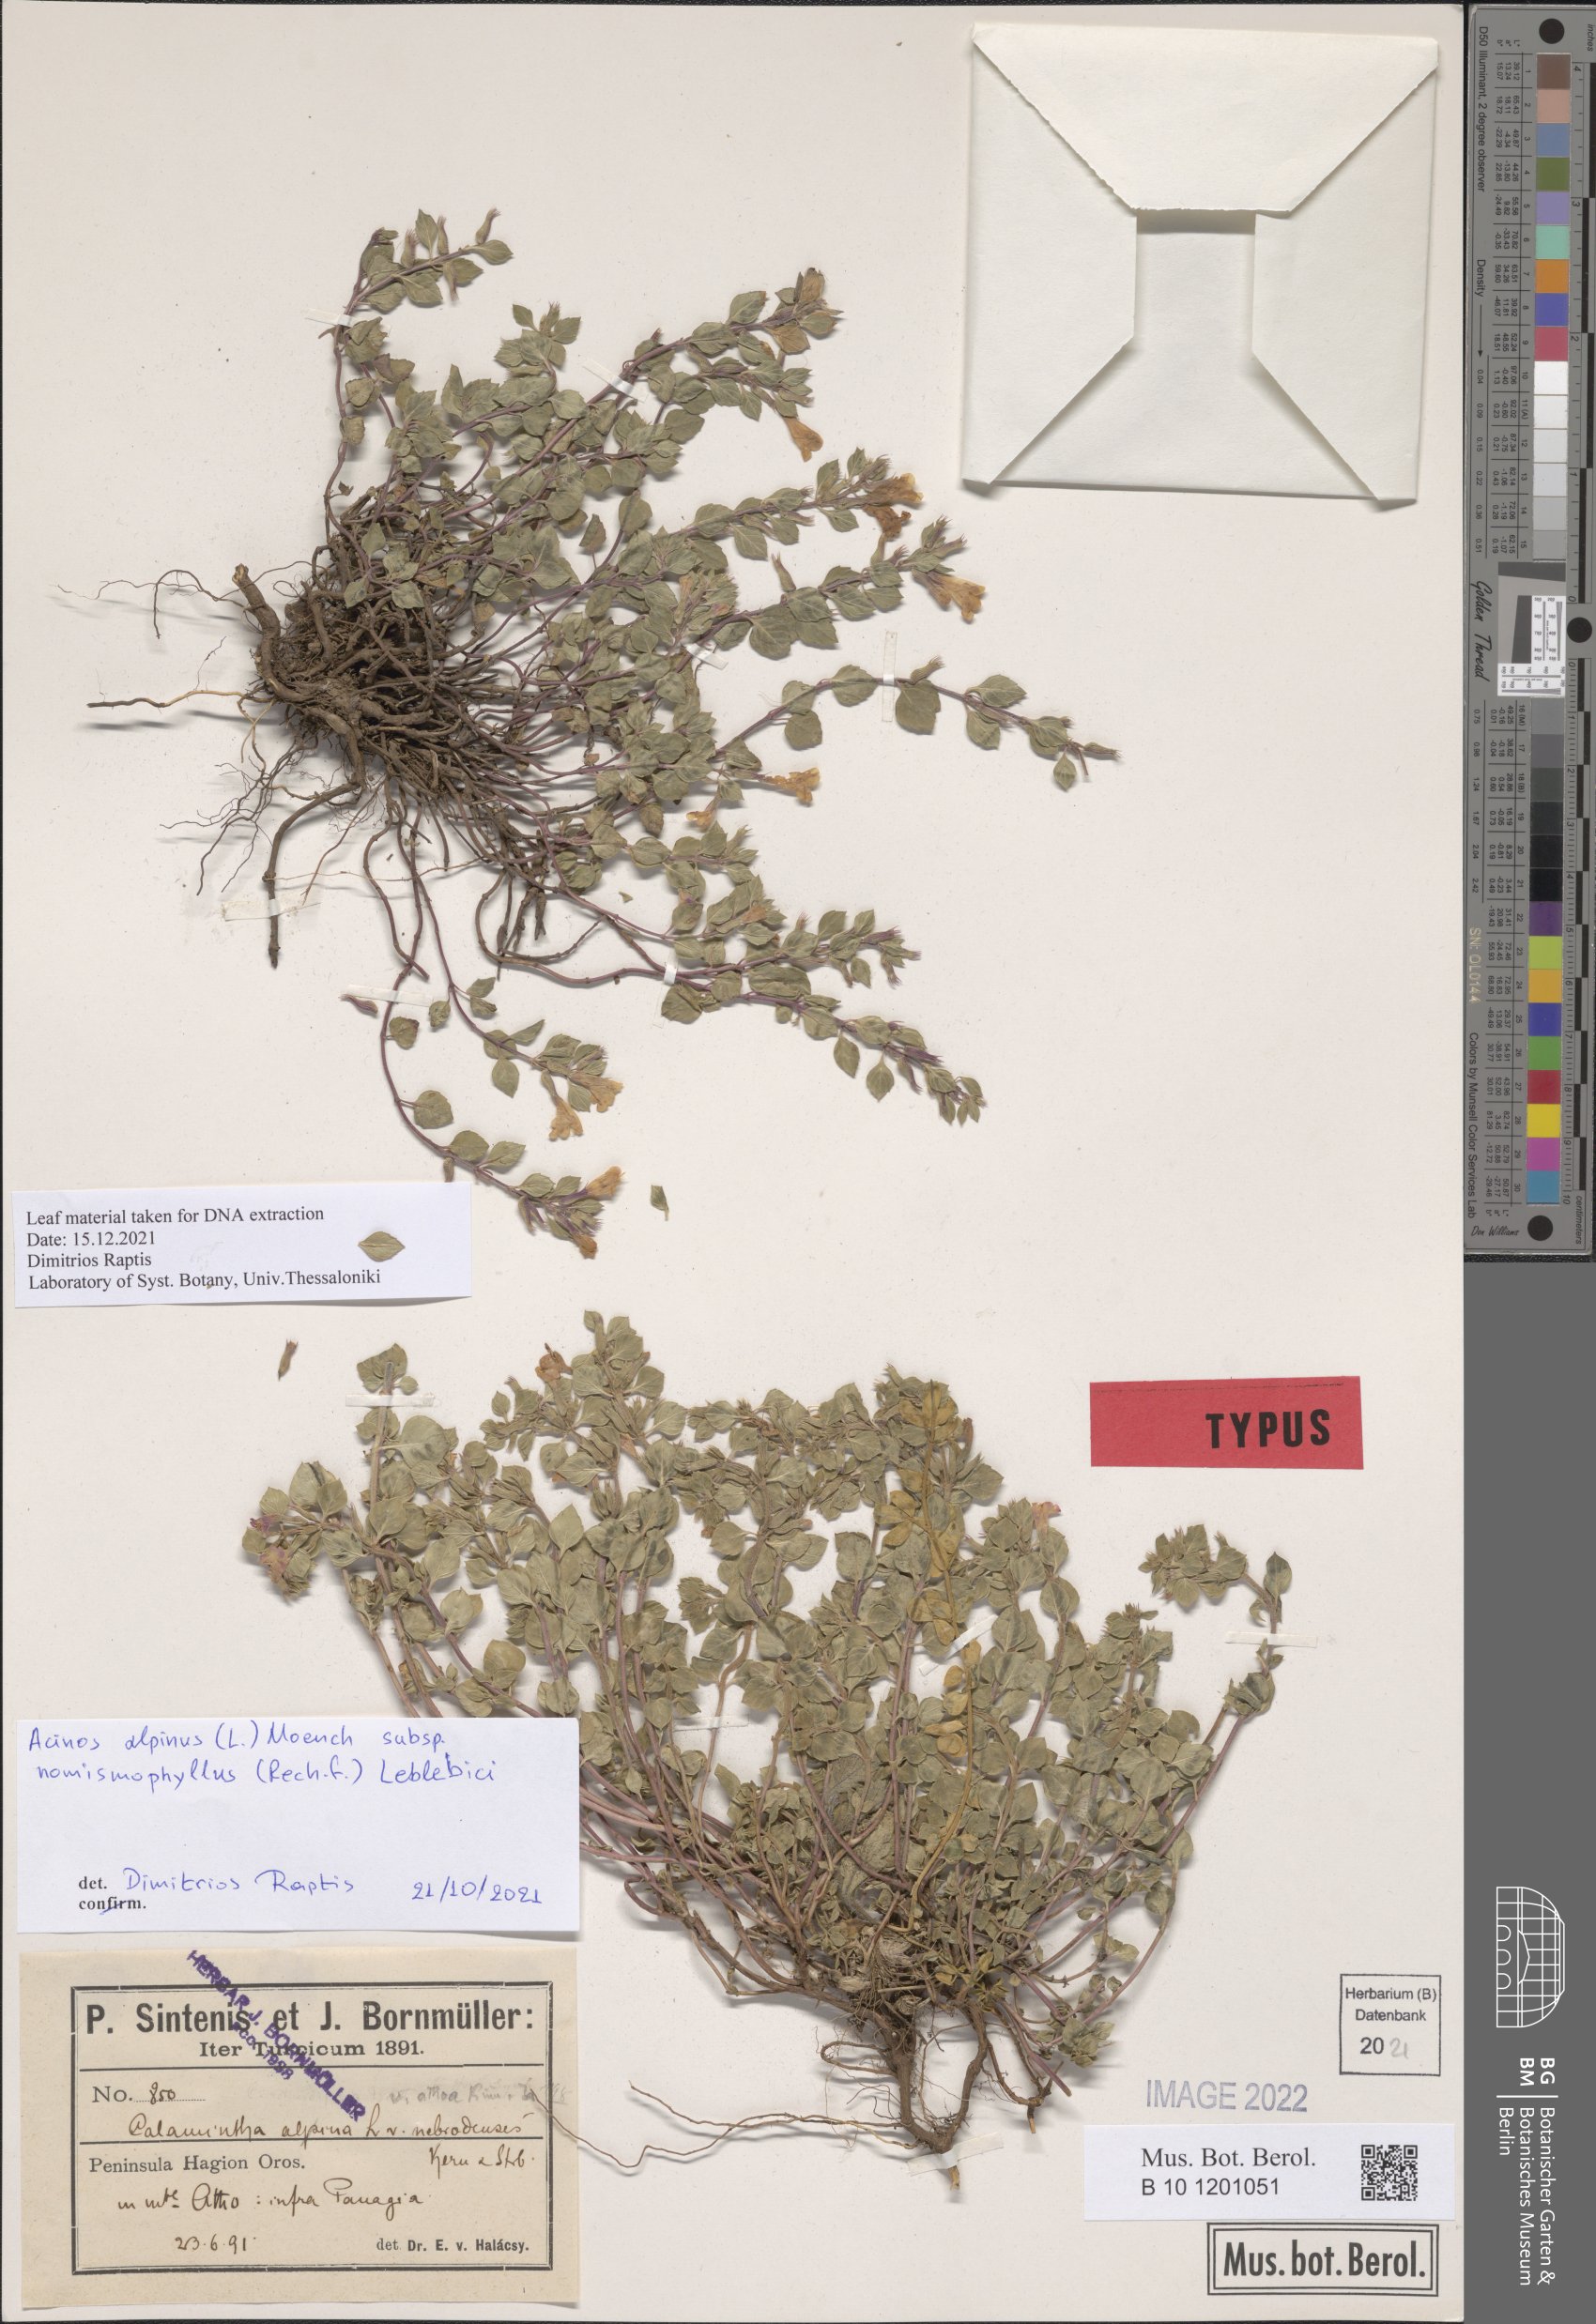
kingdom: Plantae
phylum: Tracheophyta
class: Magnoliopsida
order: Lamiales
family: Lamiaceae
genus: Clinopodium
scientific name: Clinopodium alpinum
